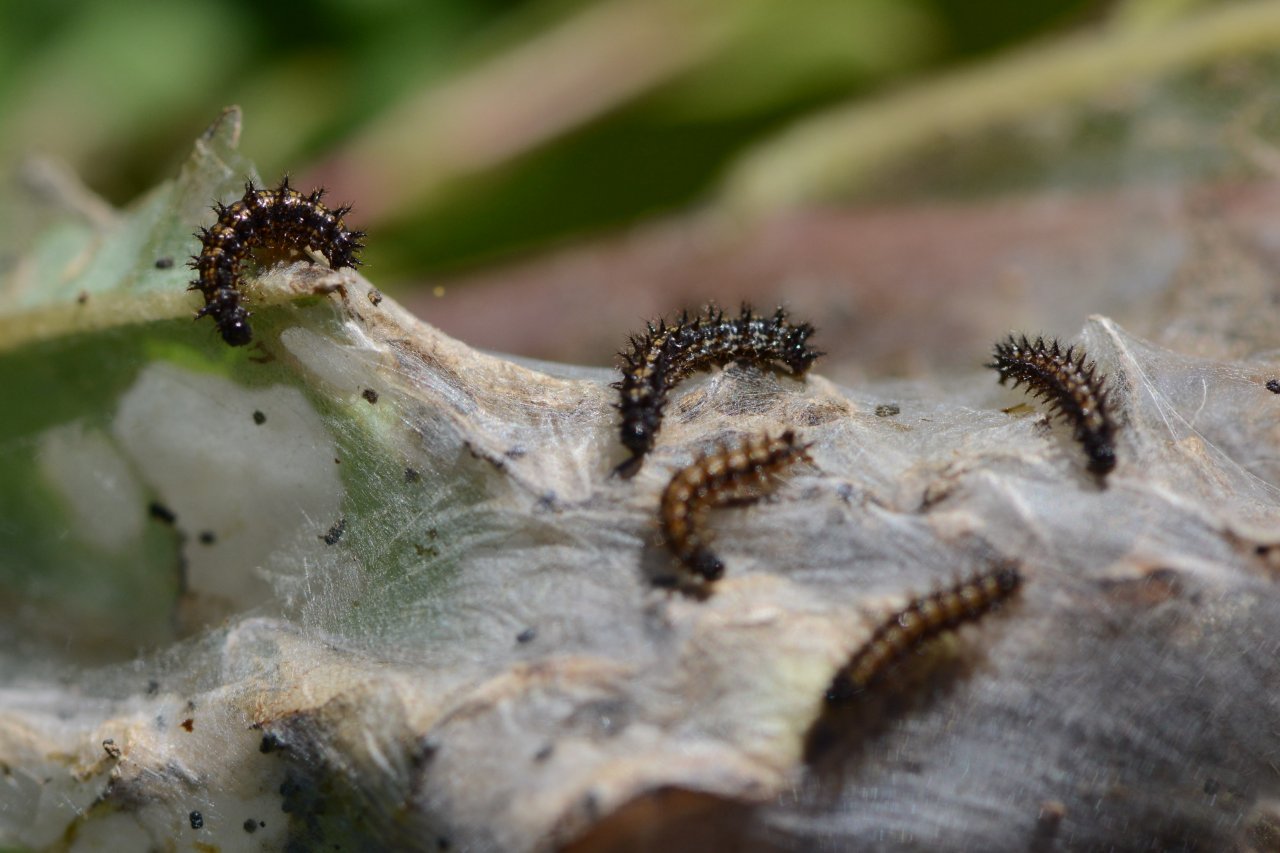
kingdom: Animalia
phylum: Arthropoda
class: Insecta
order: Lepidoptera
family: Nymphalidae
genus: Chlosyne
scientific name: Chlosyne nycteis
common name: Silvery Checkerspot
